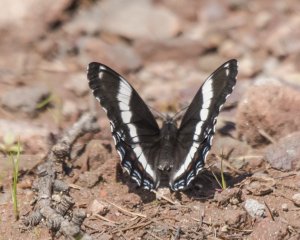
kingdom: Animalia
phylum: Arthropoda
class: Insecta
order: Lepidoptera
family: Nymphalidae
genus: Limenitis
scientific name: Limenitis arthemis
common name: Red-spotted Admiral
